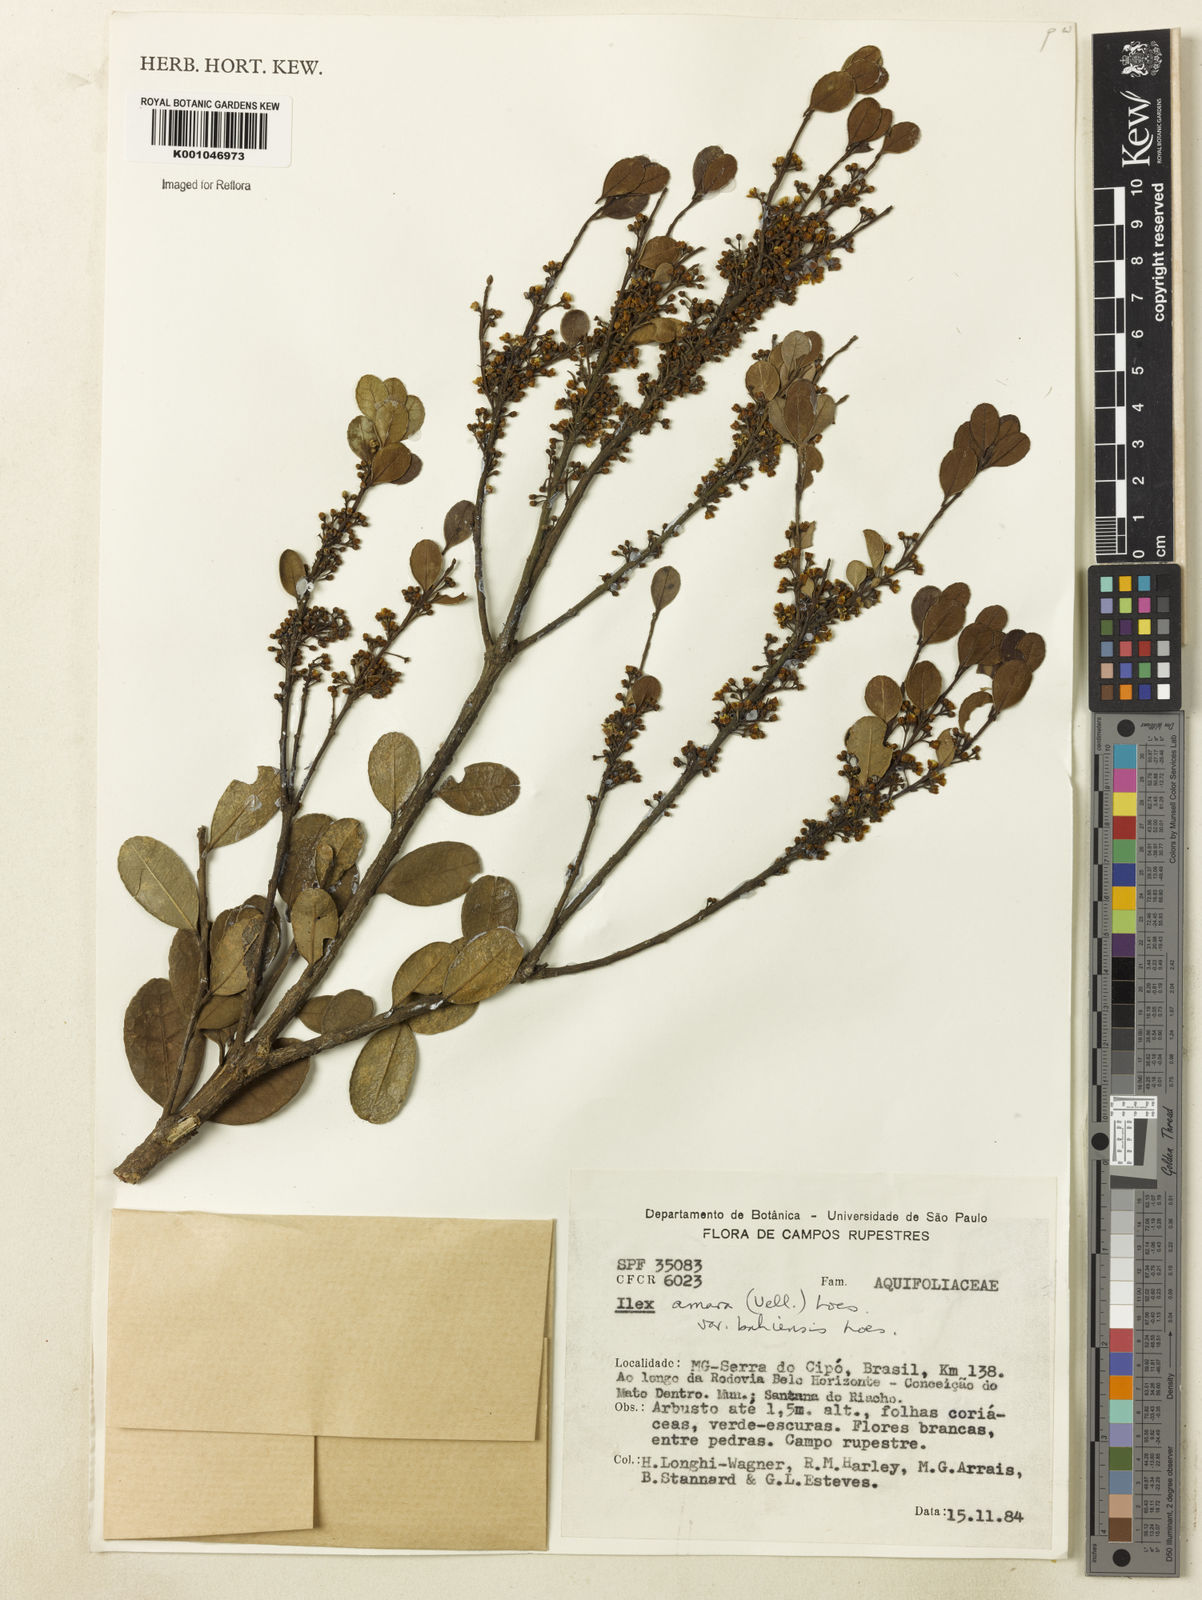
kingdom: Plantae
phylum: Tracheophyta
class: Magnoliopsida
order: Aquifoliales
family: Aquifoliaceae
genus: Ilex
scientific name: Ilex dumosa
